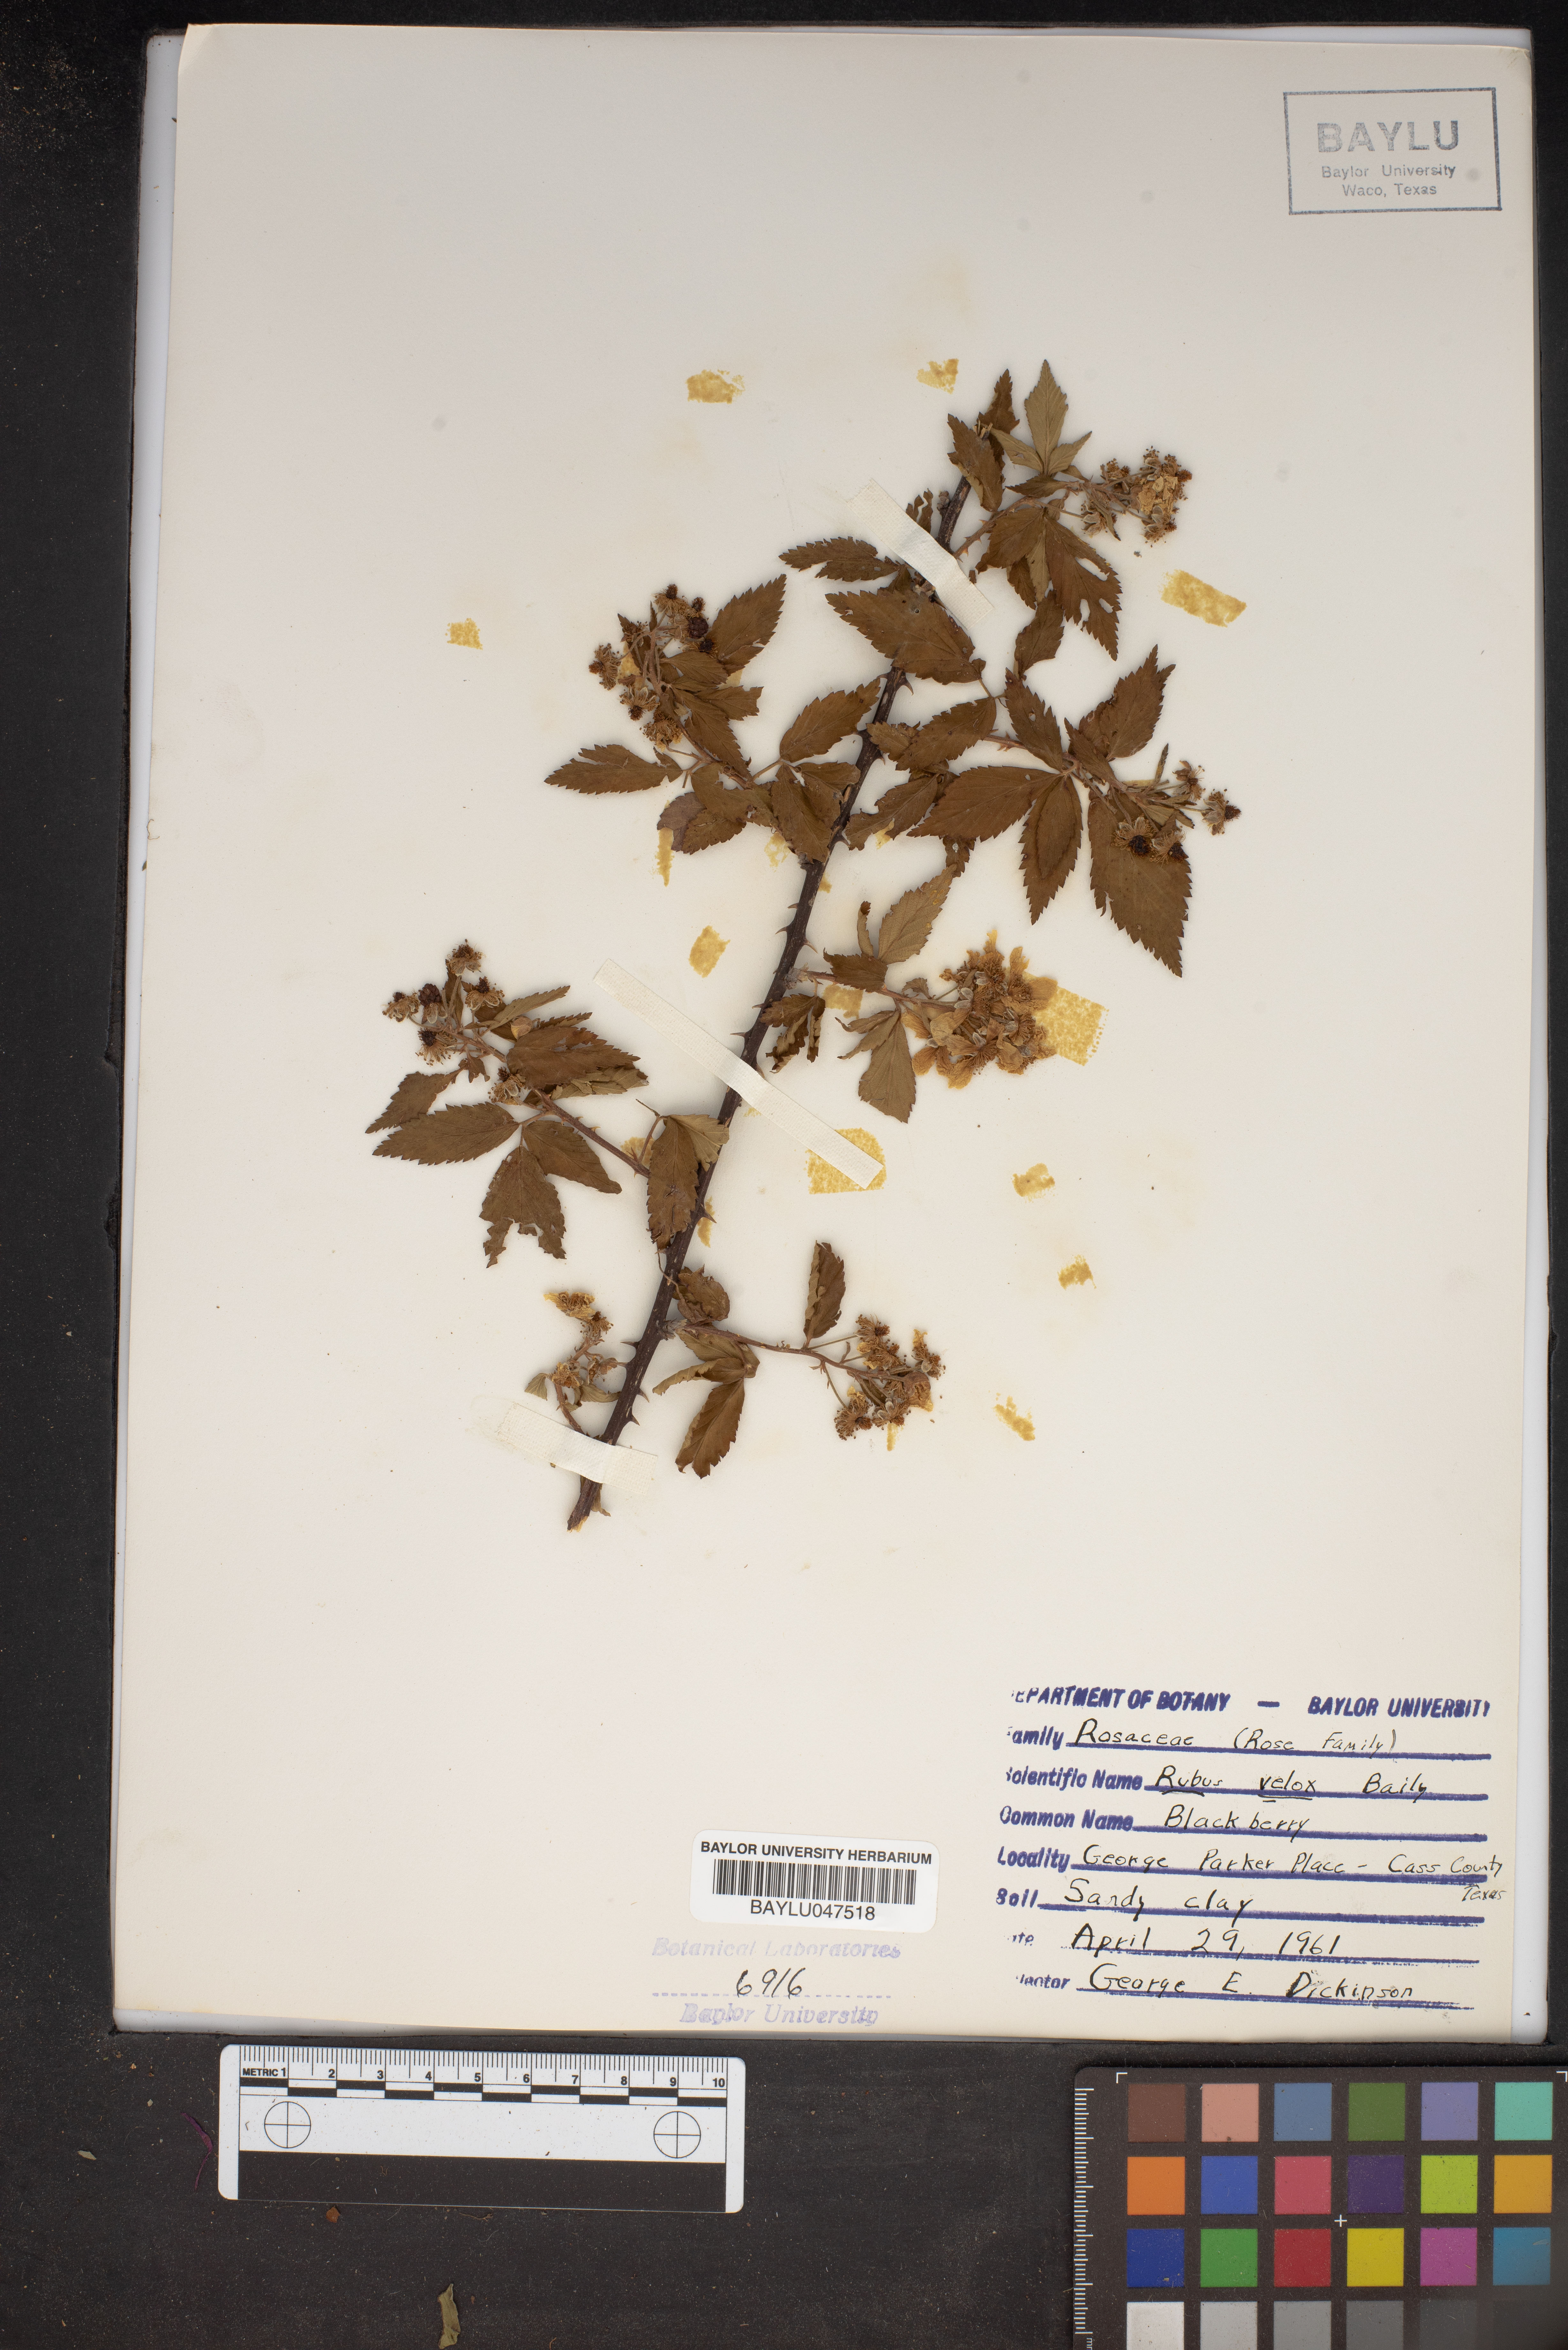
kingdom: Plantae
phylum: Tracheophyta
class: Magnoliopsida
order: Rosales
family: Rosaceae
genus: Rubus
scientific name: Rubus velox
